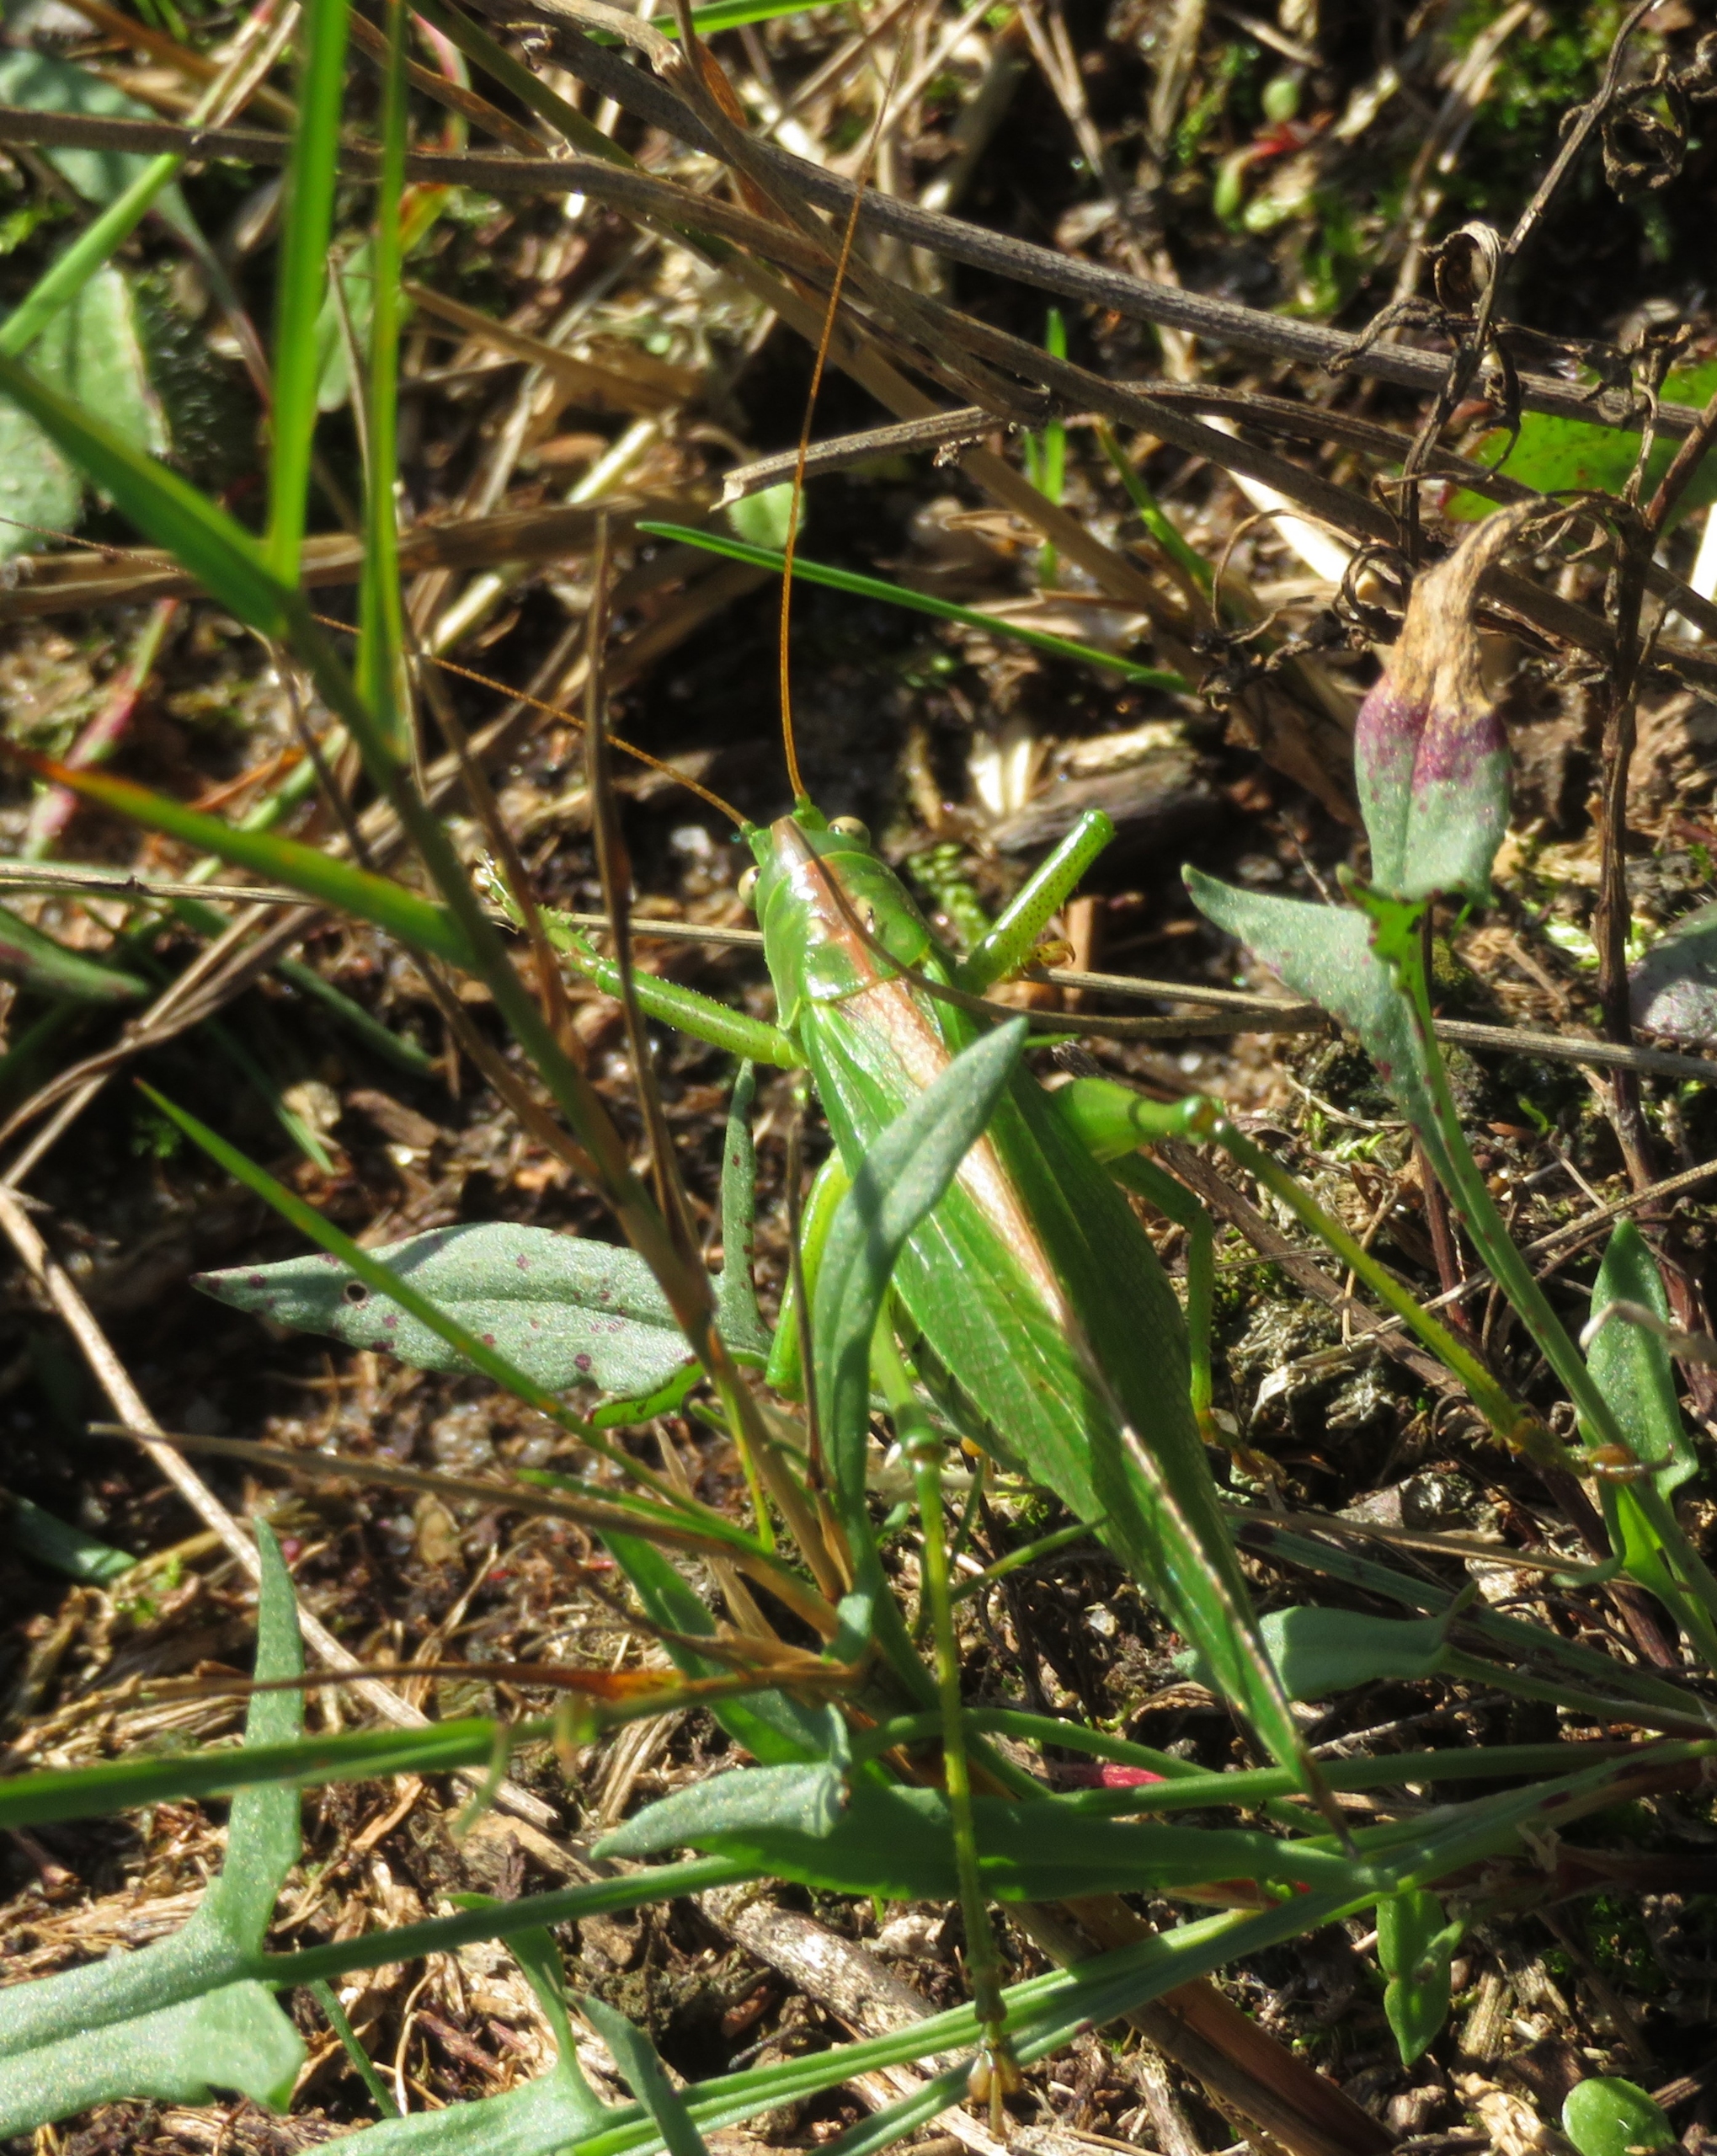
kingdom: Animalia
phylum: Arthropoda
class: Insecta
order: Orthoptera
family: Tettigoniidae
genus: Tettigonia
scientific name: Tettigonia viridissima
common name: Stor grøn løvgræshoppe
